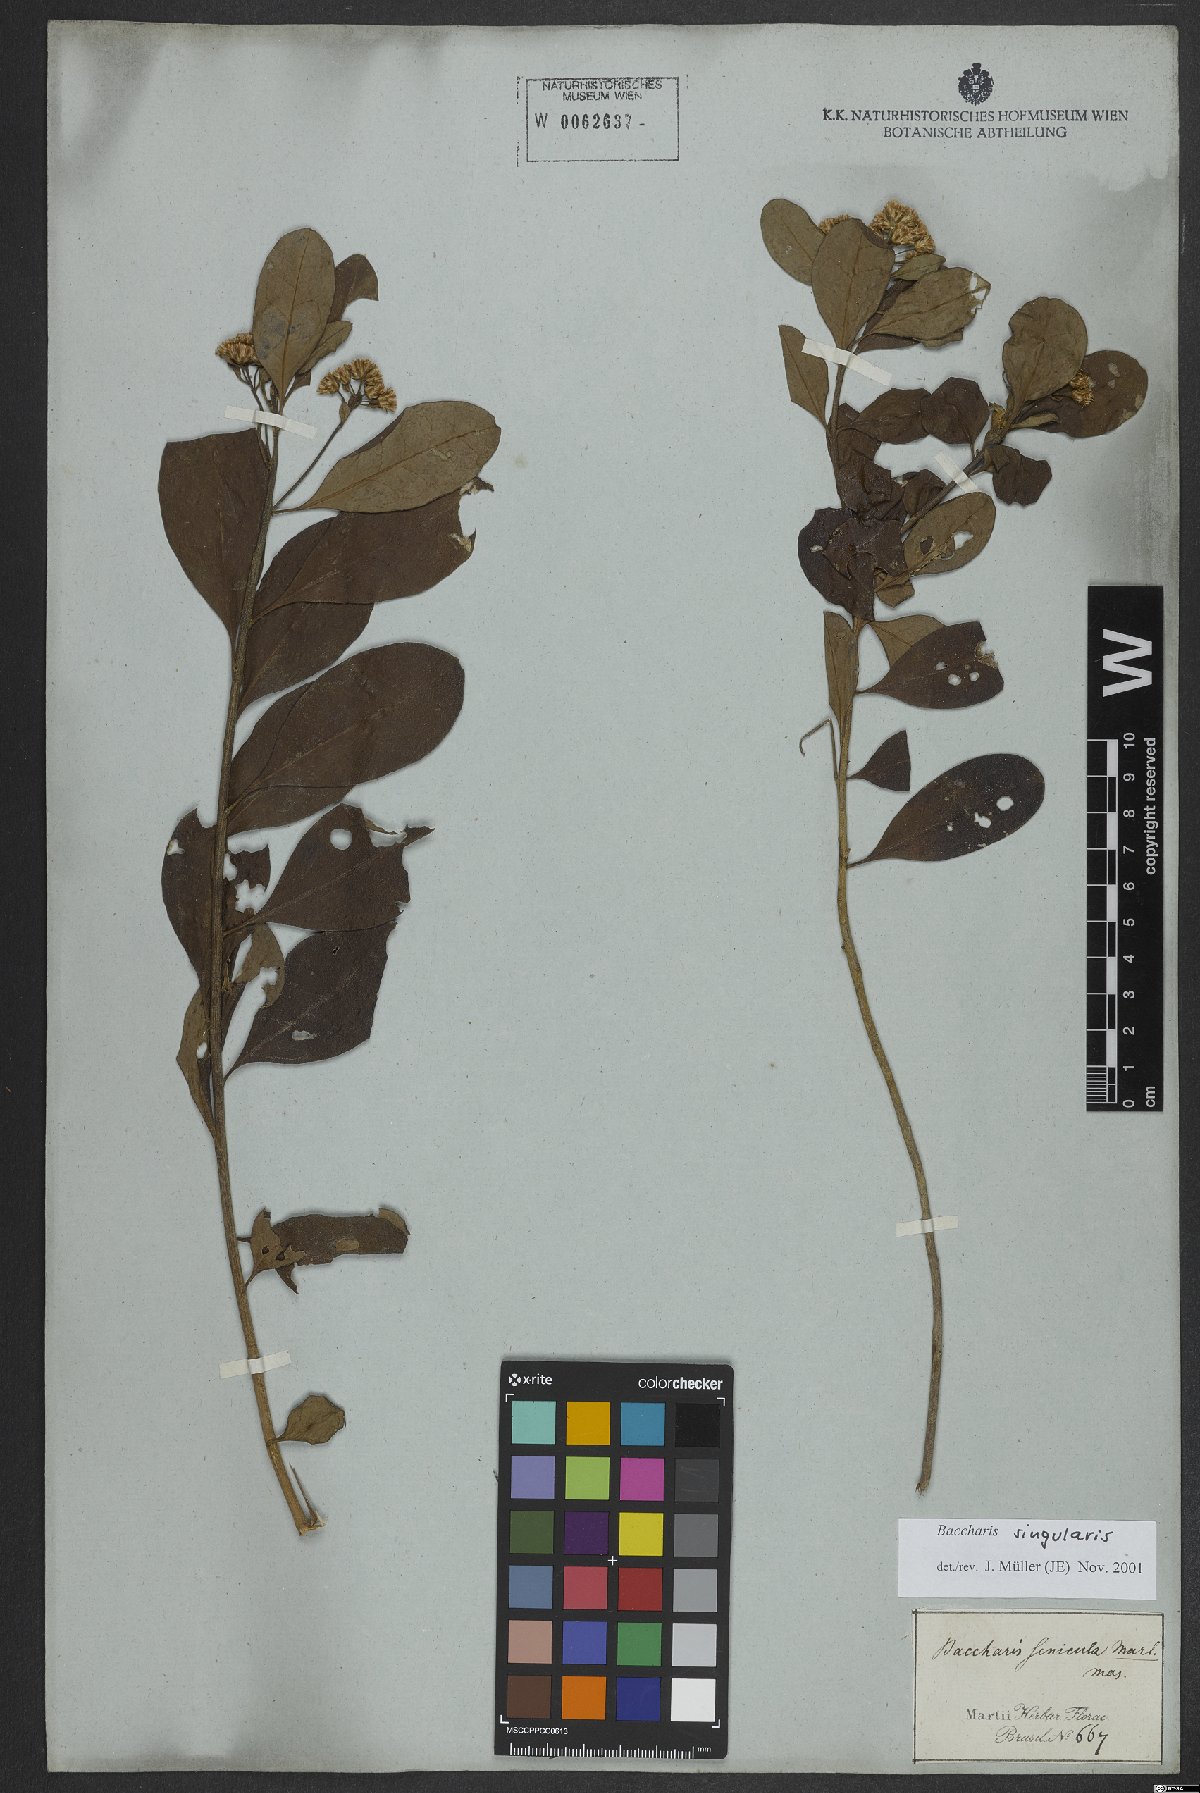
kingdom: Plantae
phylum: Tracheophyta
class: Magnoliopsida
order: Asterales
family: Asteraceae
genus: Baccharis
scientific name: Baccharis singularis
